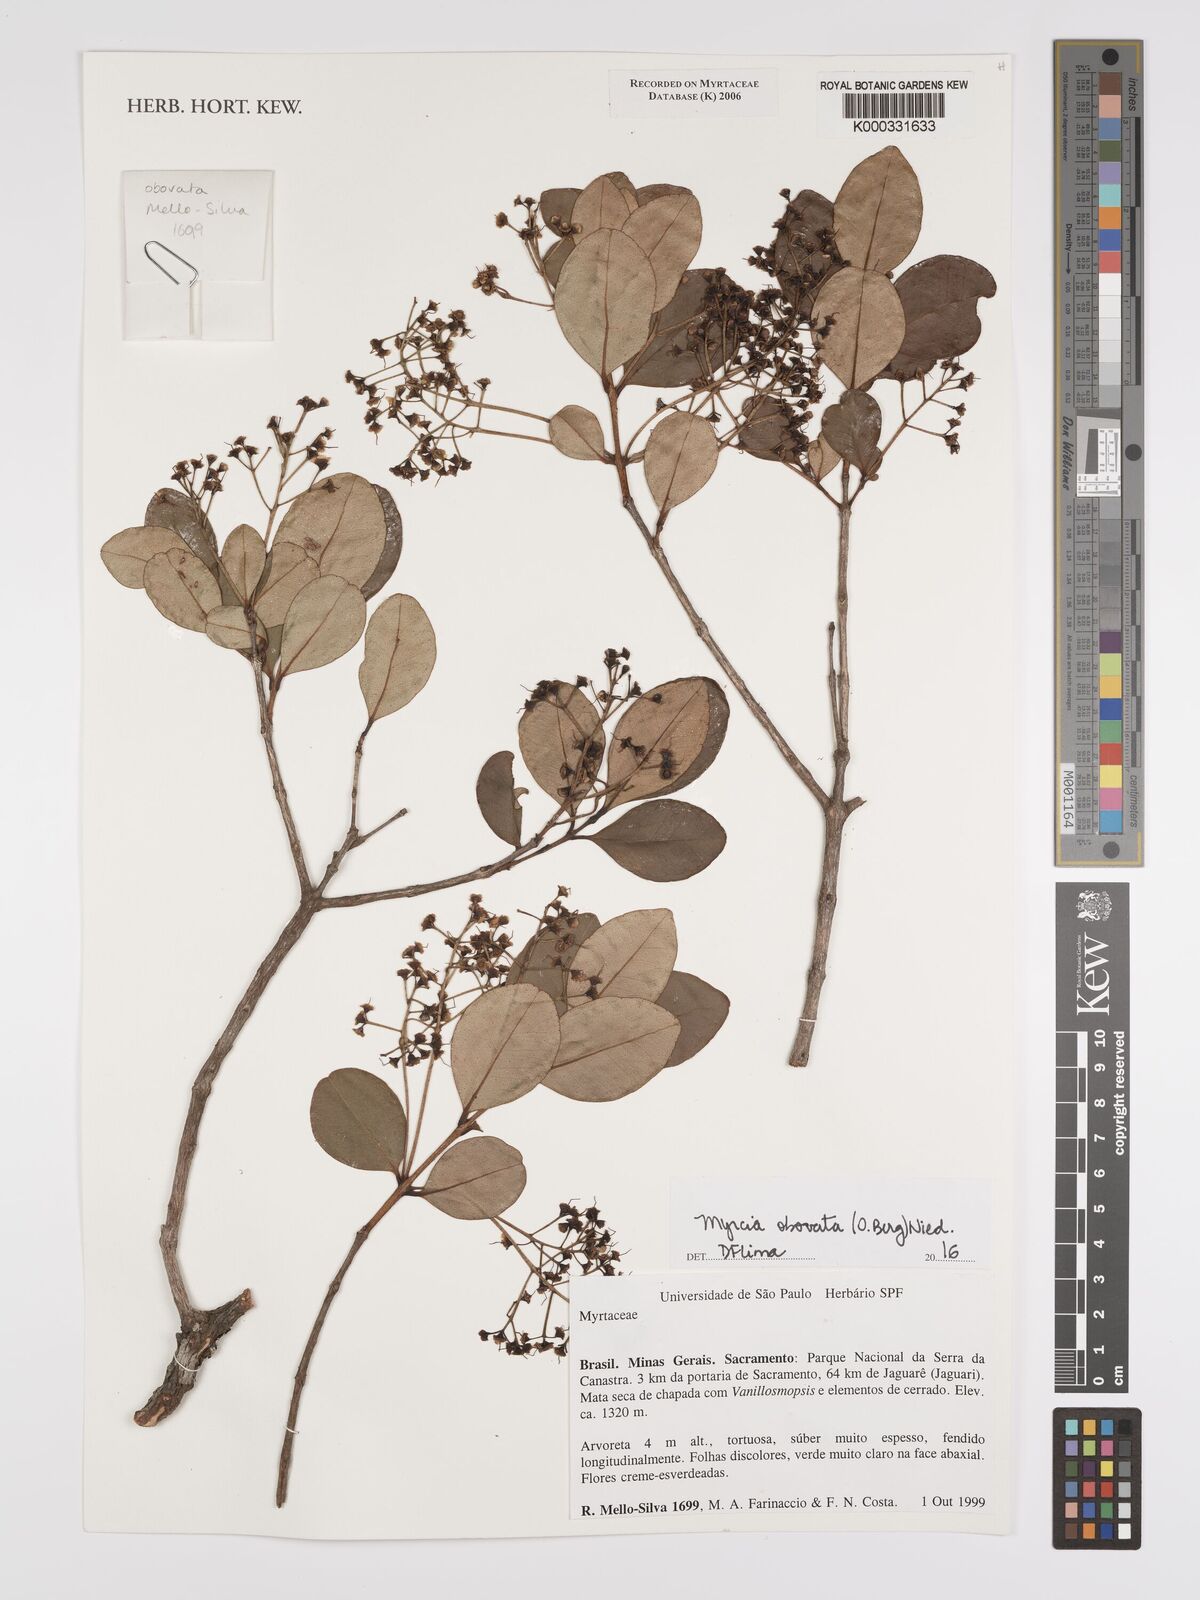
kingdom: Plantae
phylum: Tracheophyta
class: Magnoliopsida
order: Myrtales
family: Myrtaceae
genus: Myrcia
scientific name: Myrcia
